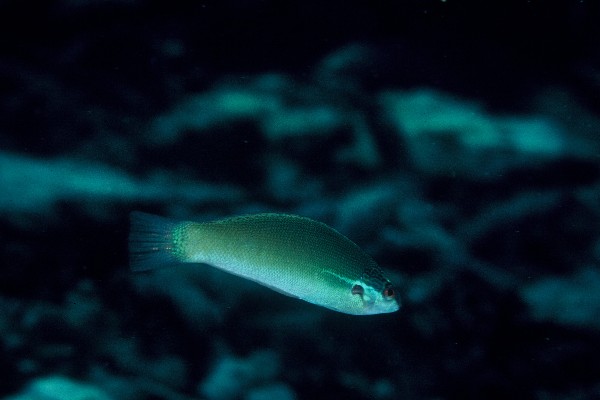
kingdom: Animalia
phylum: Chordata
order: Perciformes
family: Labridae
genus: Pseudocoris
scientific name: Pseudocoris yamashiroi
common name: Redspot wrasse
